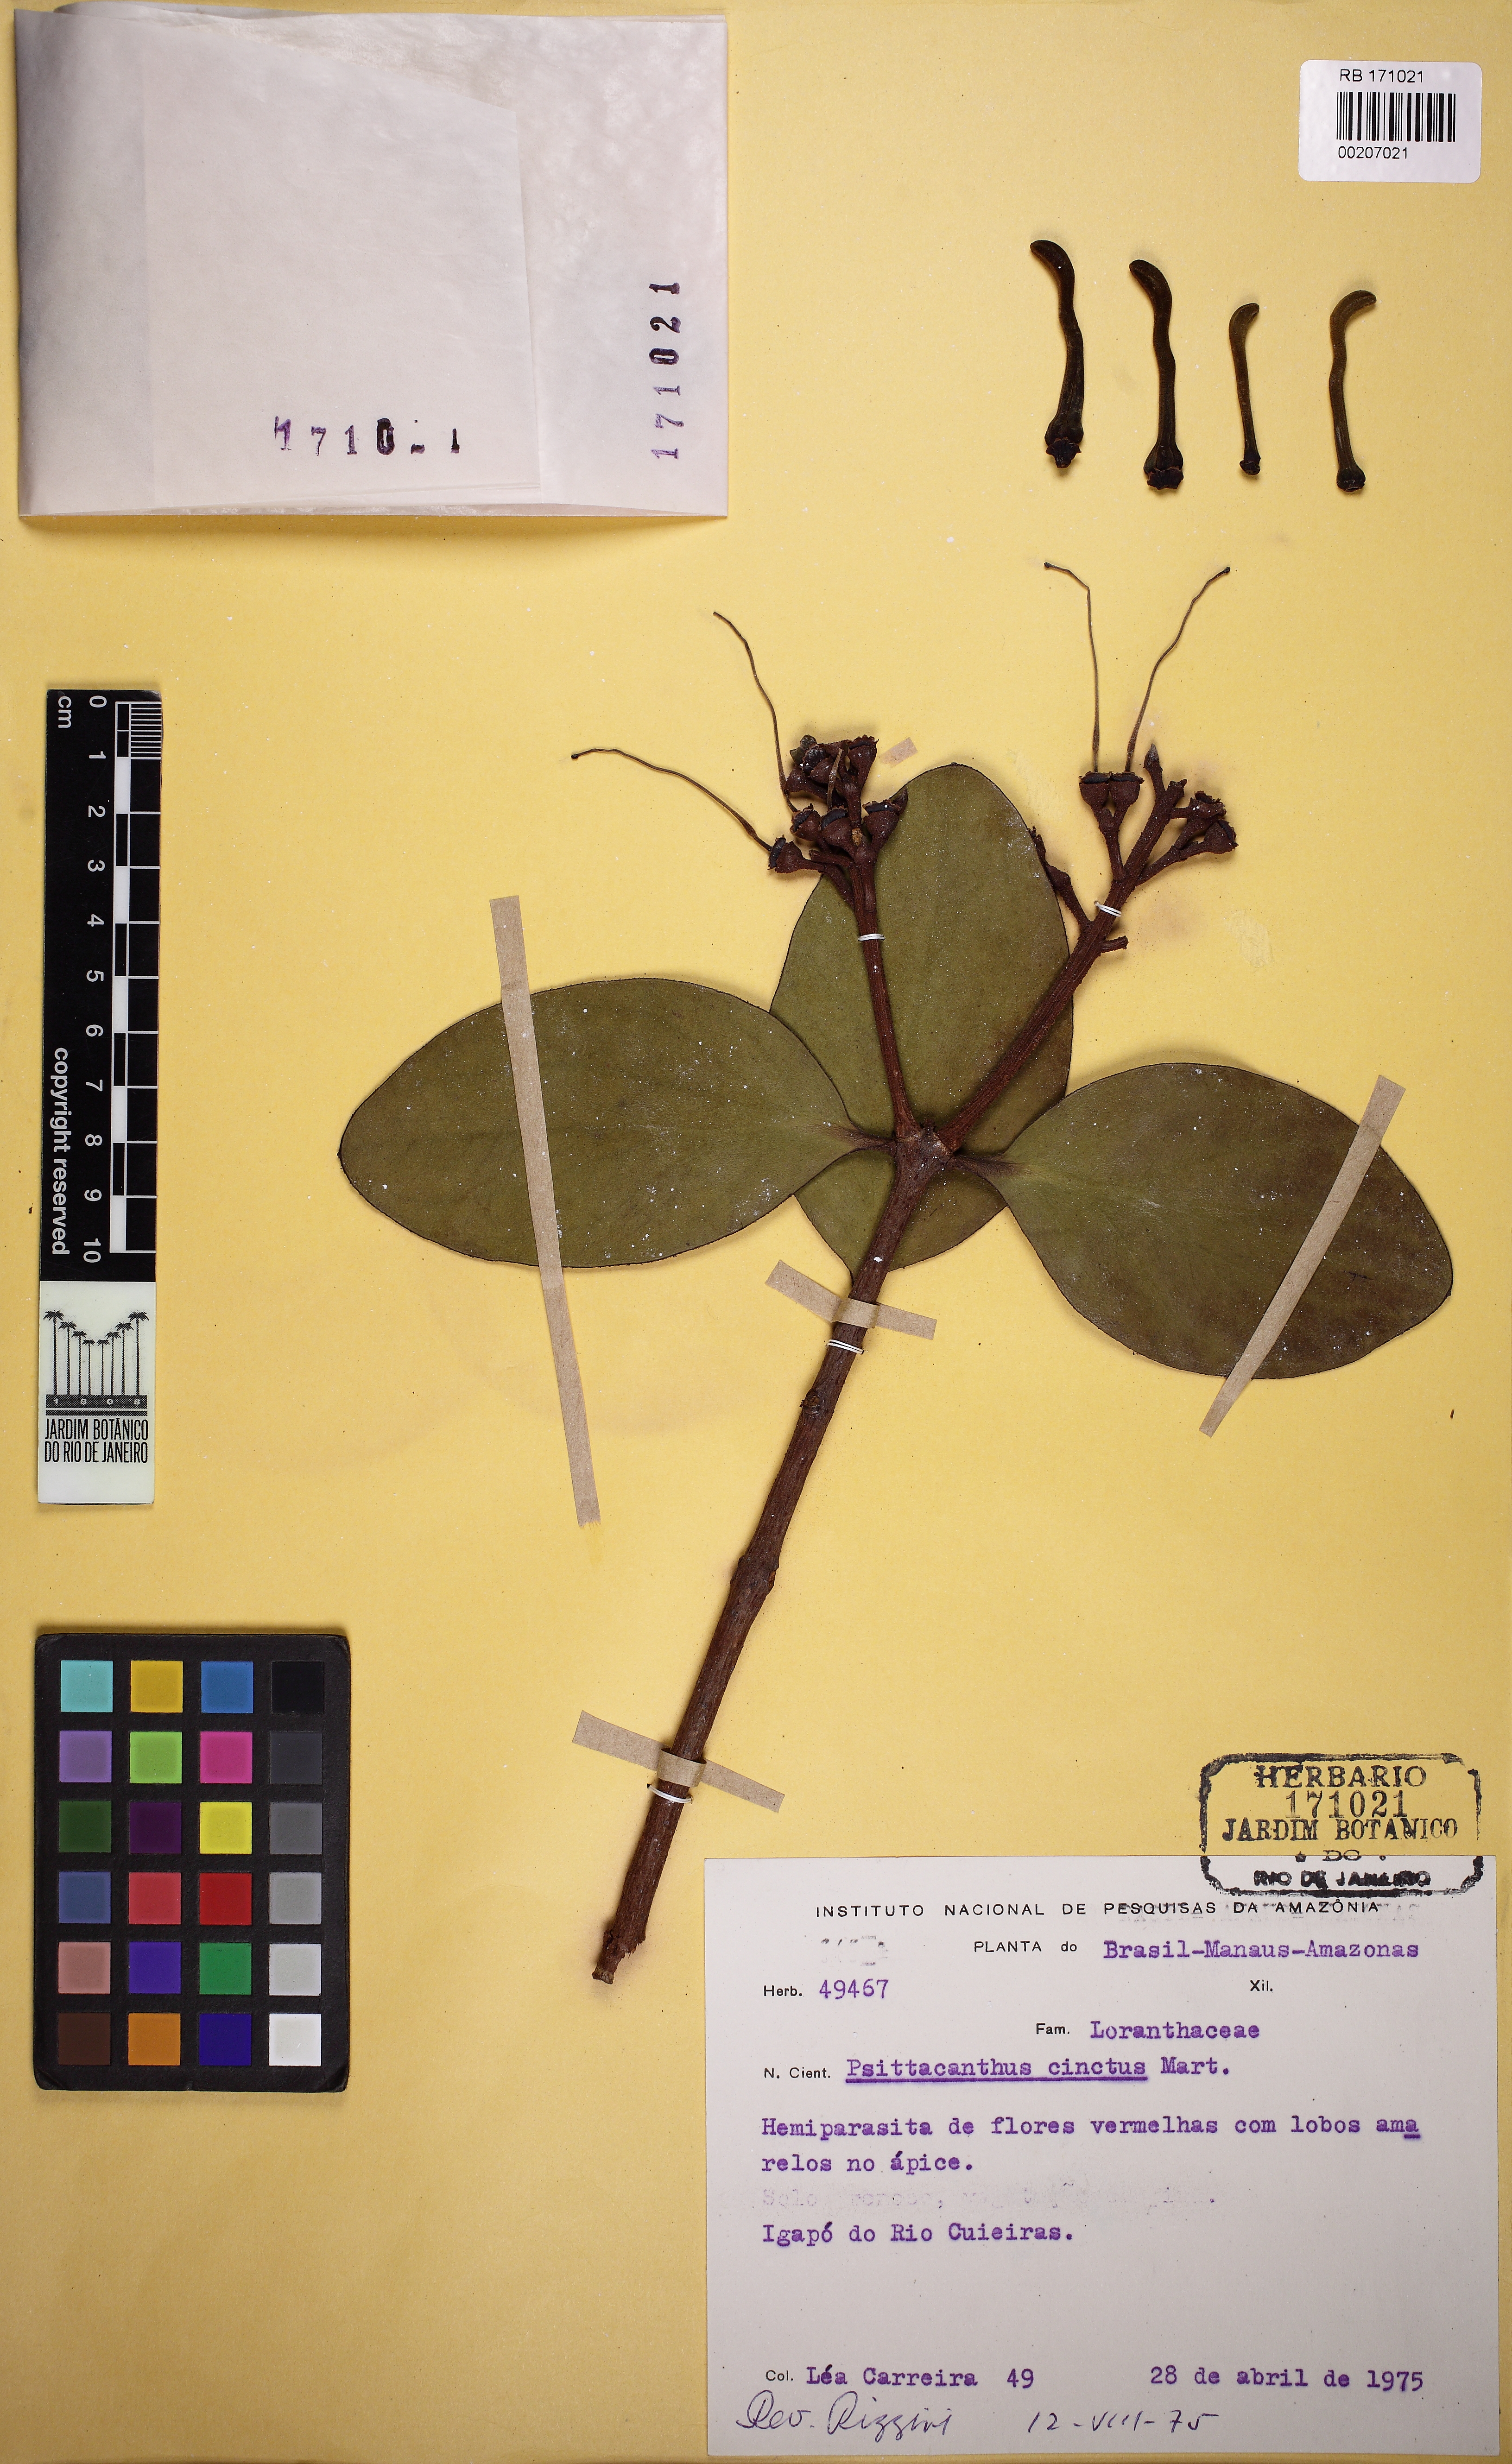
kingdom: Plantae
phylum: Tracheophyta
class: Magnoliopsida
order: Santalales
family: Loranthaceae
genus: Psittacanthus
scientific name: Psittacanthus cinctus
